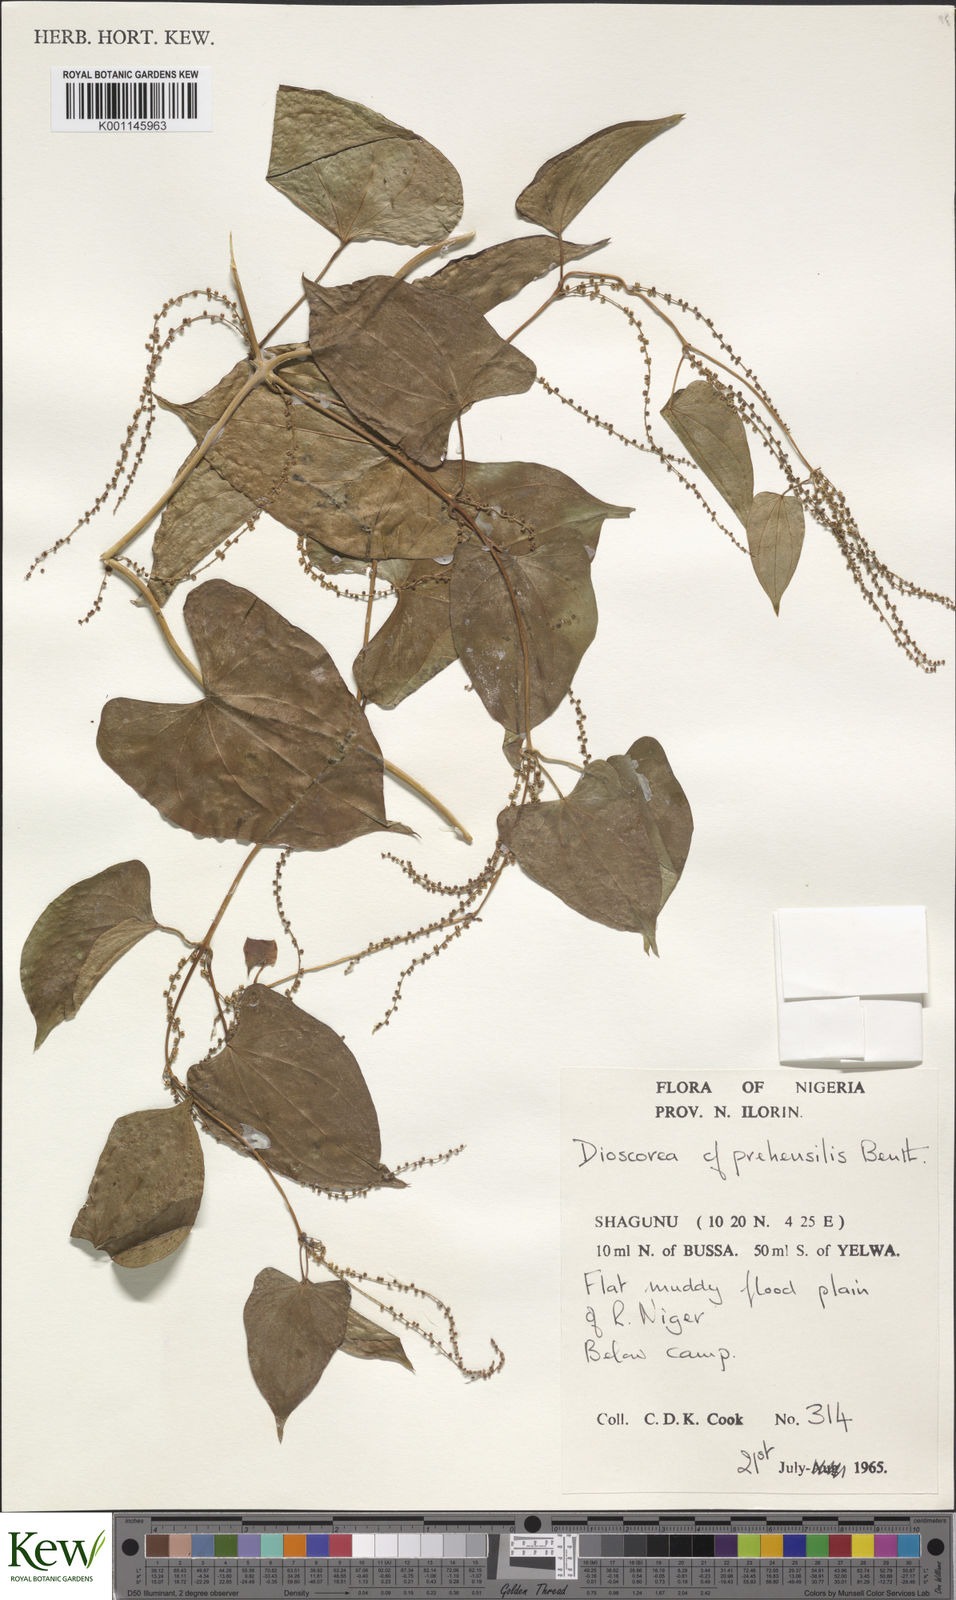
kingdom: Plantae
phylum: Tracheophyta
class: Liliopsida
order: Dioscoreales
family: Dioscoreaceae
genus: Dioscorea
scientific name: Dioscorea praehensilis
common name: Bush yam
